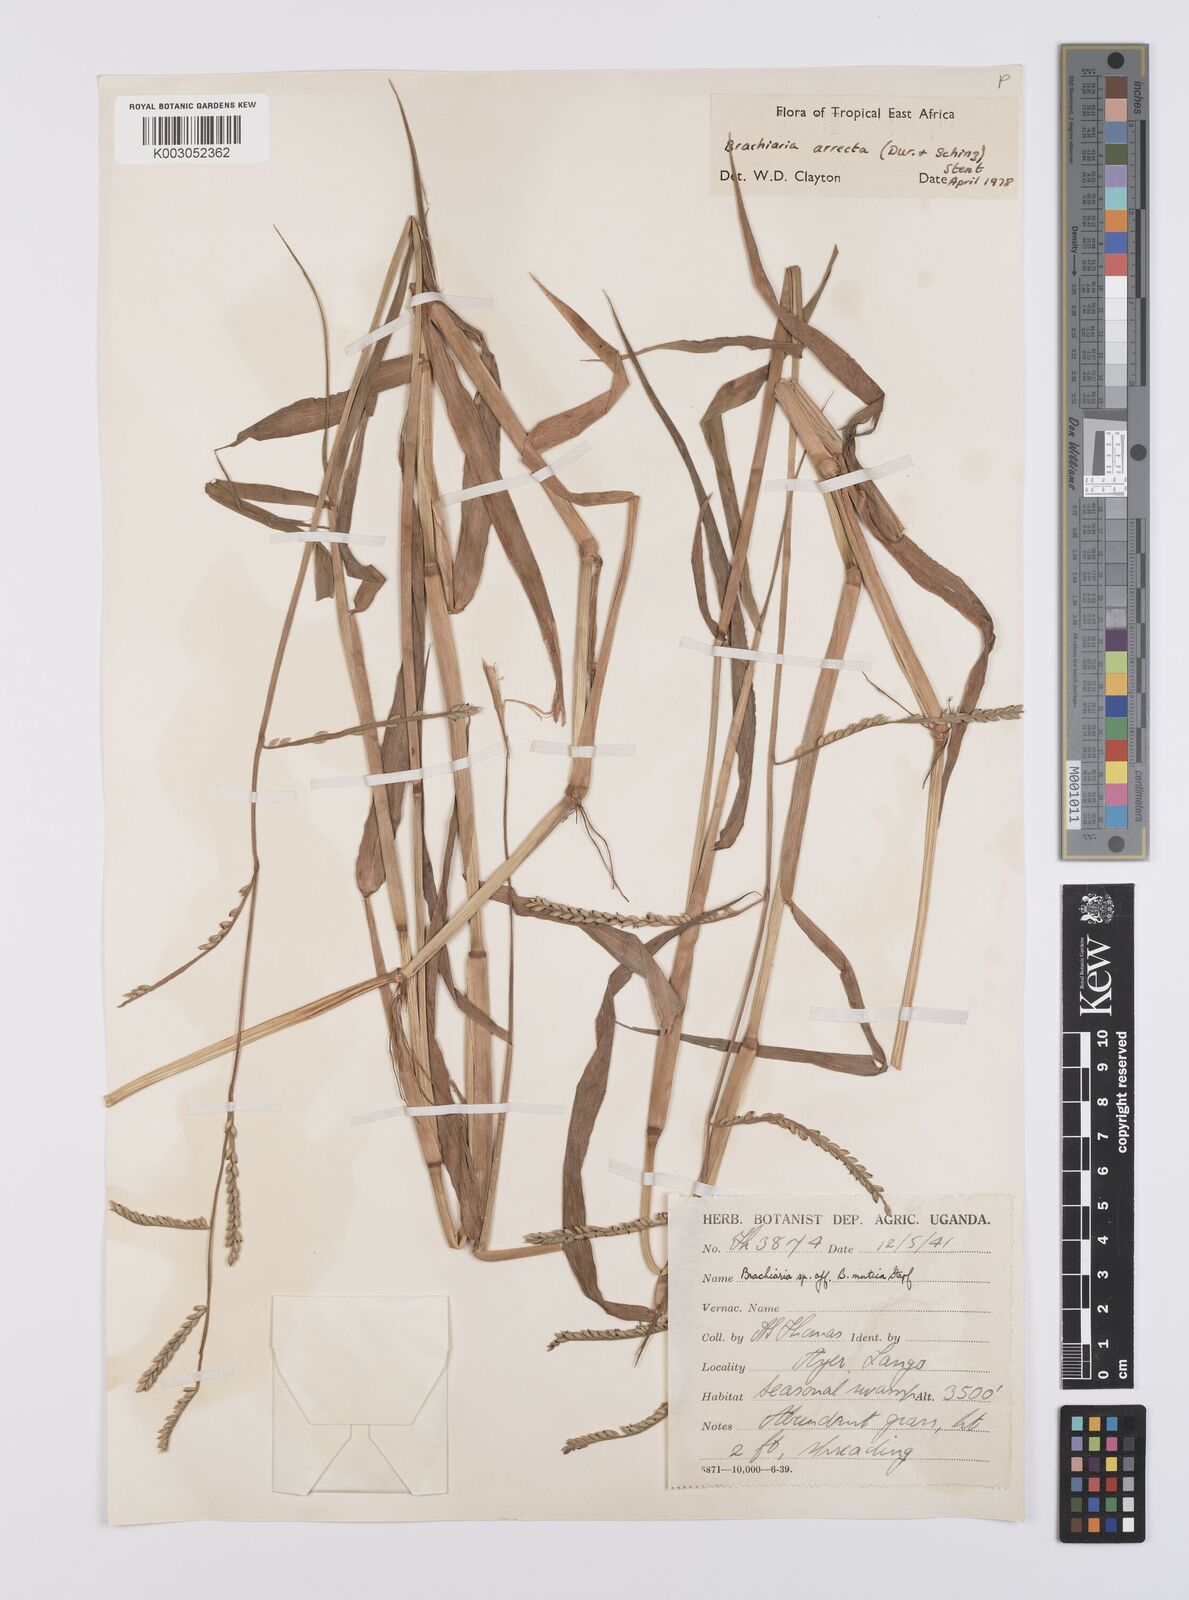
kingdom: Plantae
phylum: Tracheophyta
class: Liliopsida
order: Poales
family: Poaceae
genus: Urochloa
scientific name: Urochloa arrecta
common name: African signalgrass
